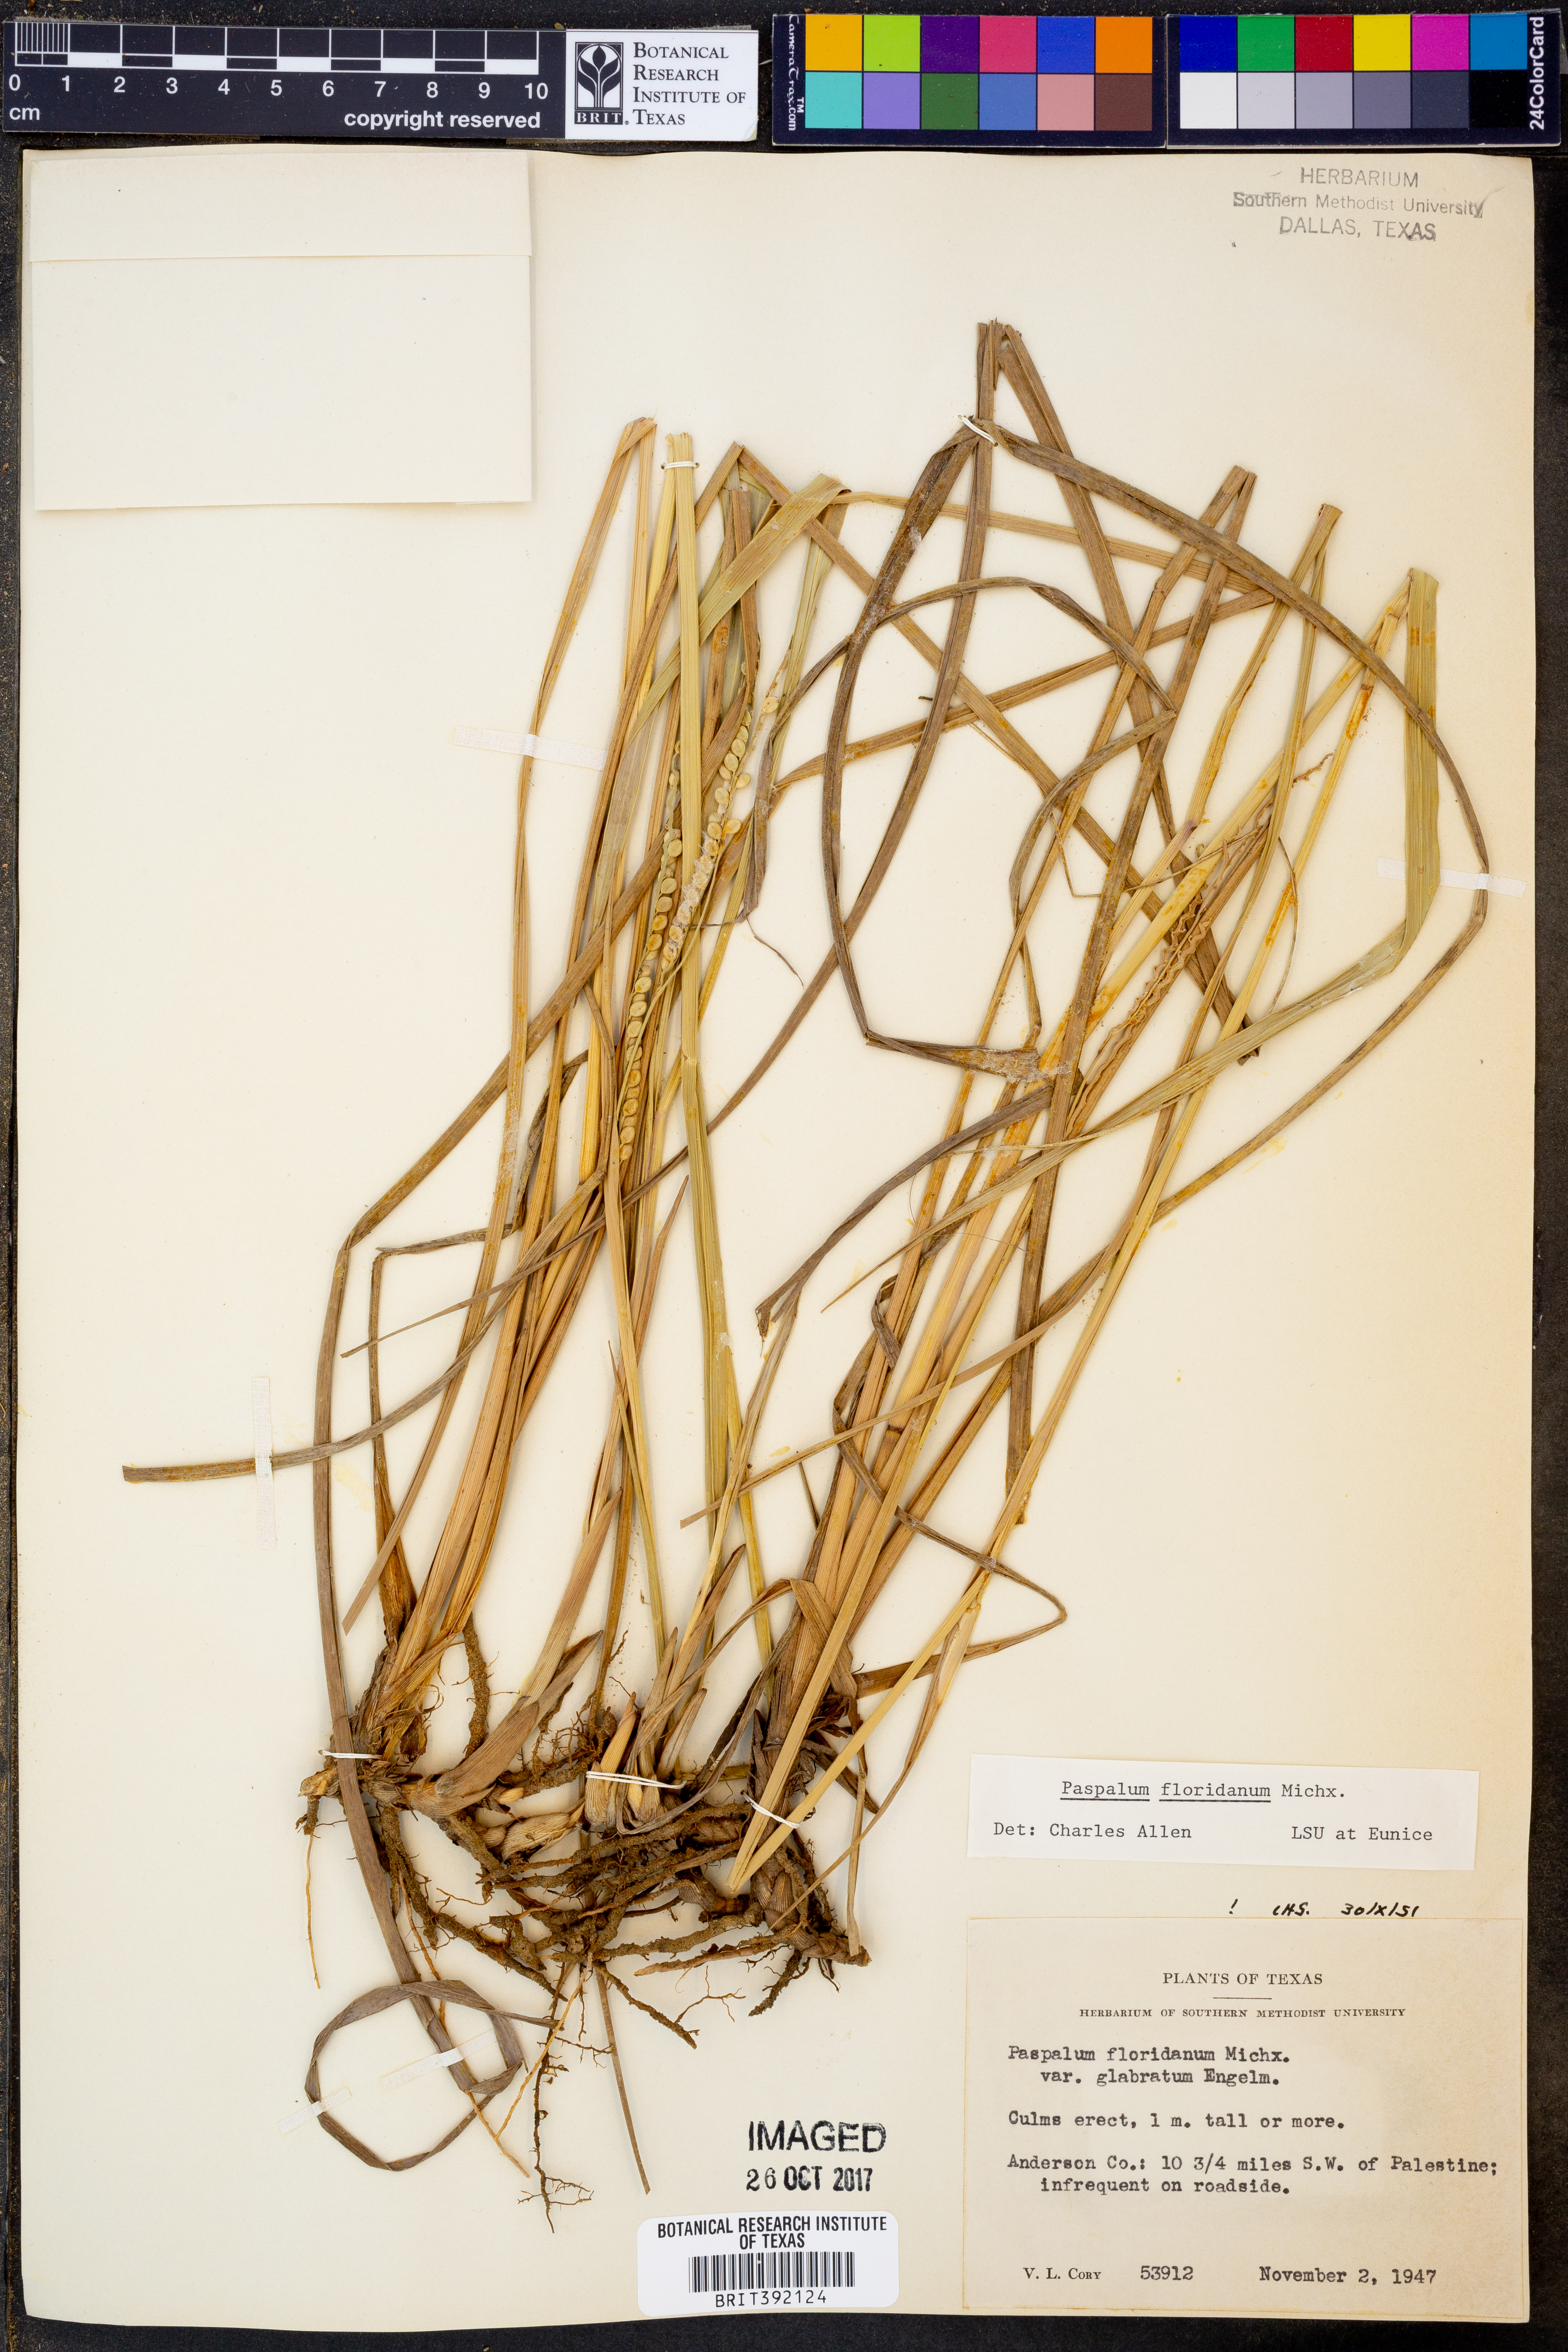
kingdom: Plantae
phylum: Tracheophyta
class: Liliopsida
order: Poales
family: Poaceae
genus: Paspalum
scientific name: Paspalum floridanum
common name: Florida paspalum
